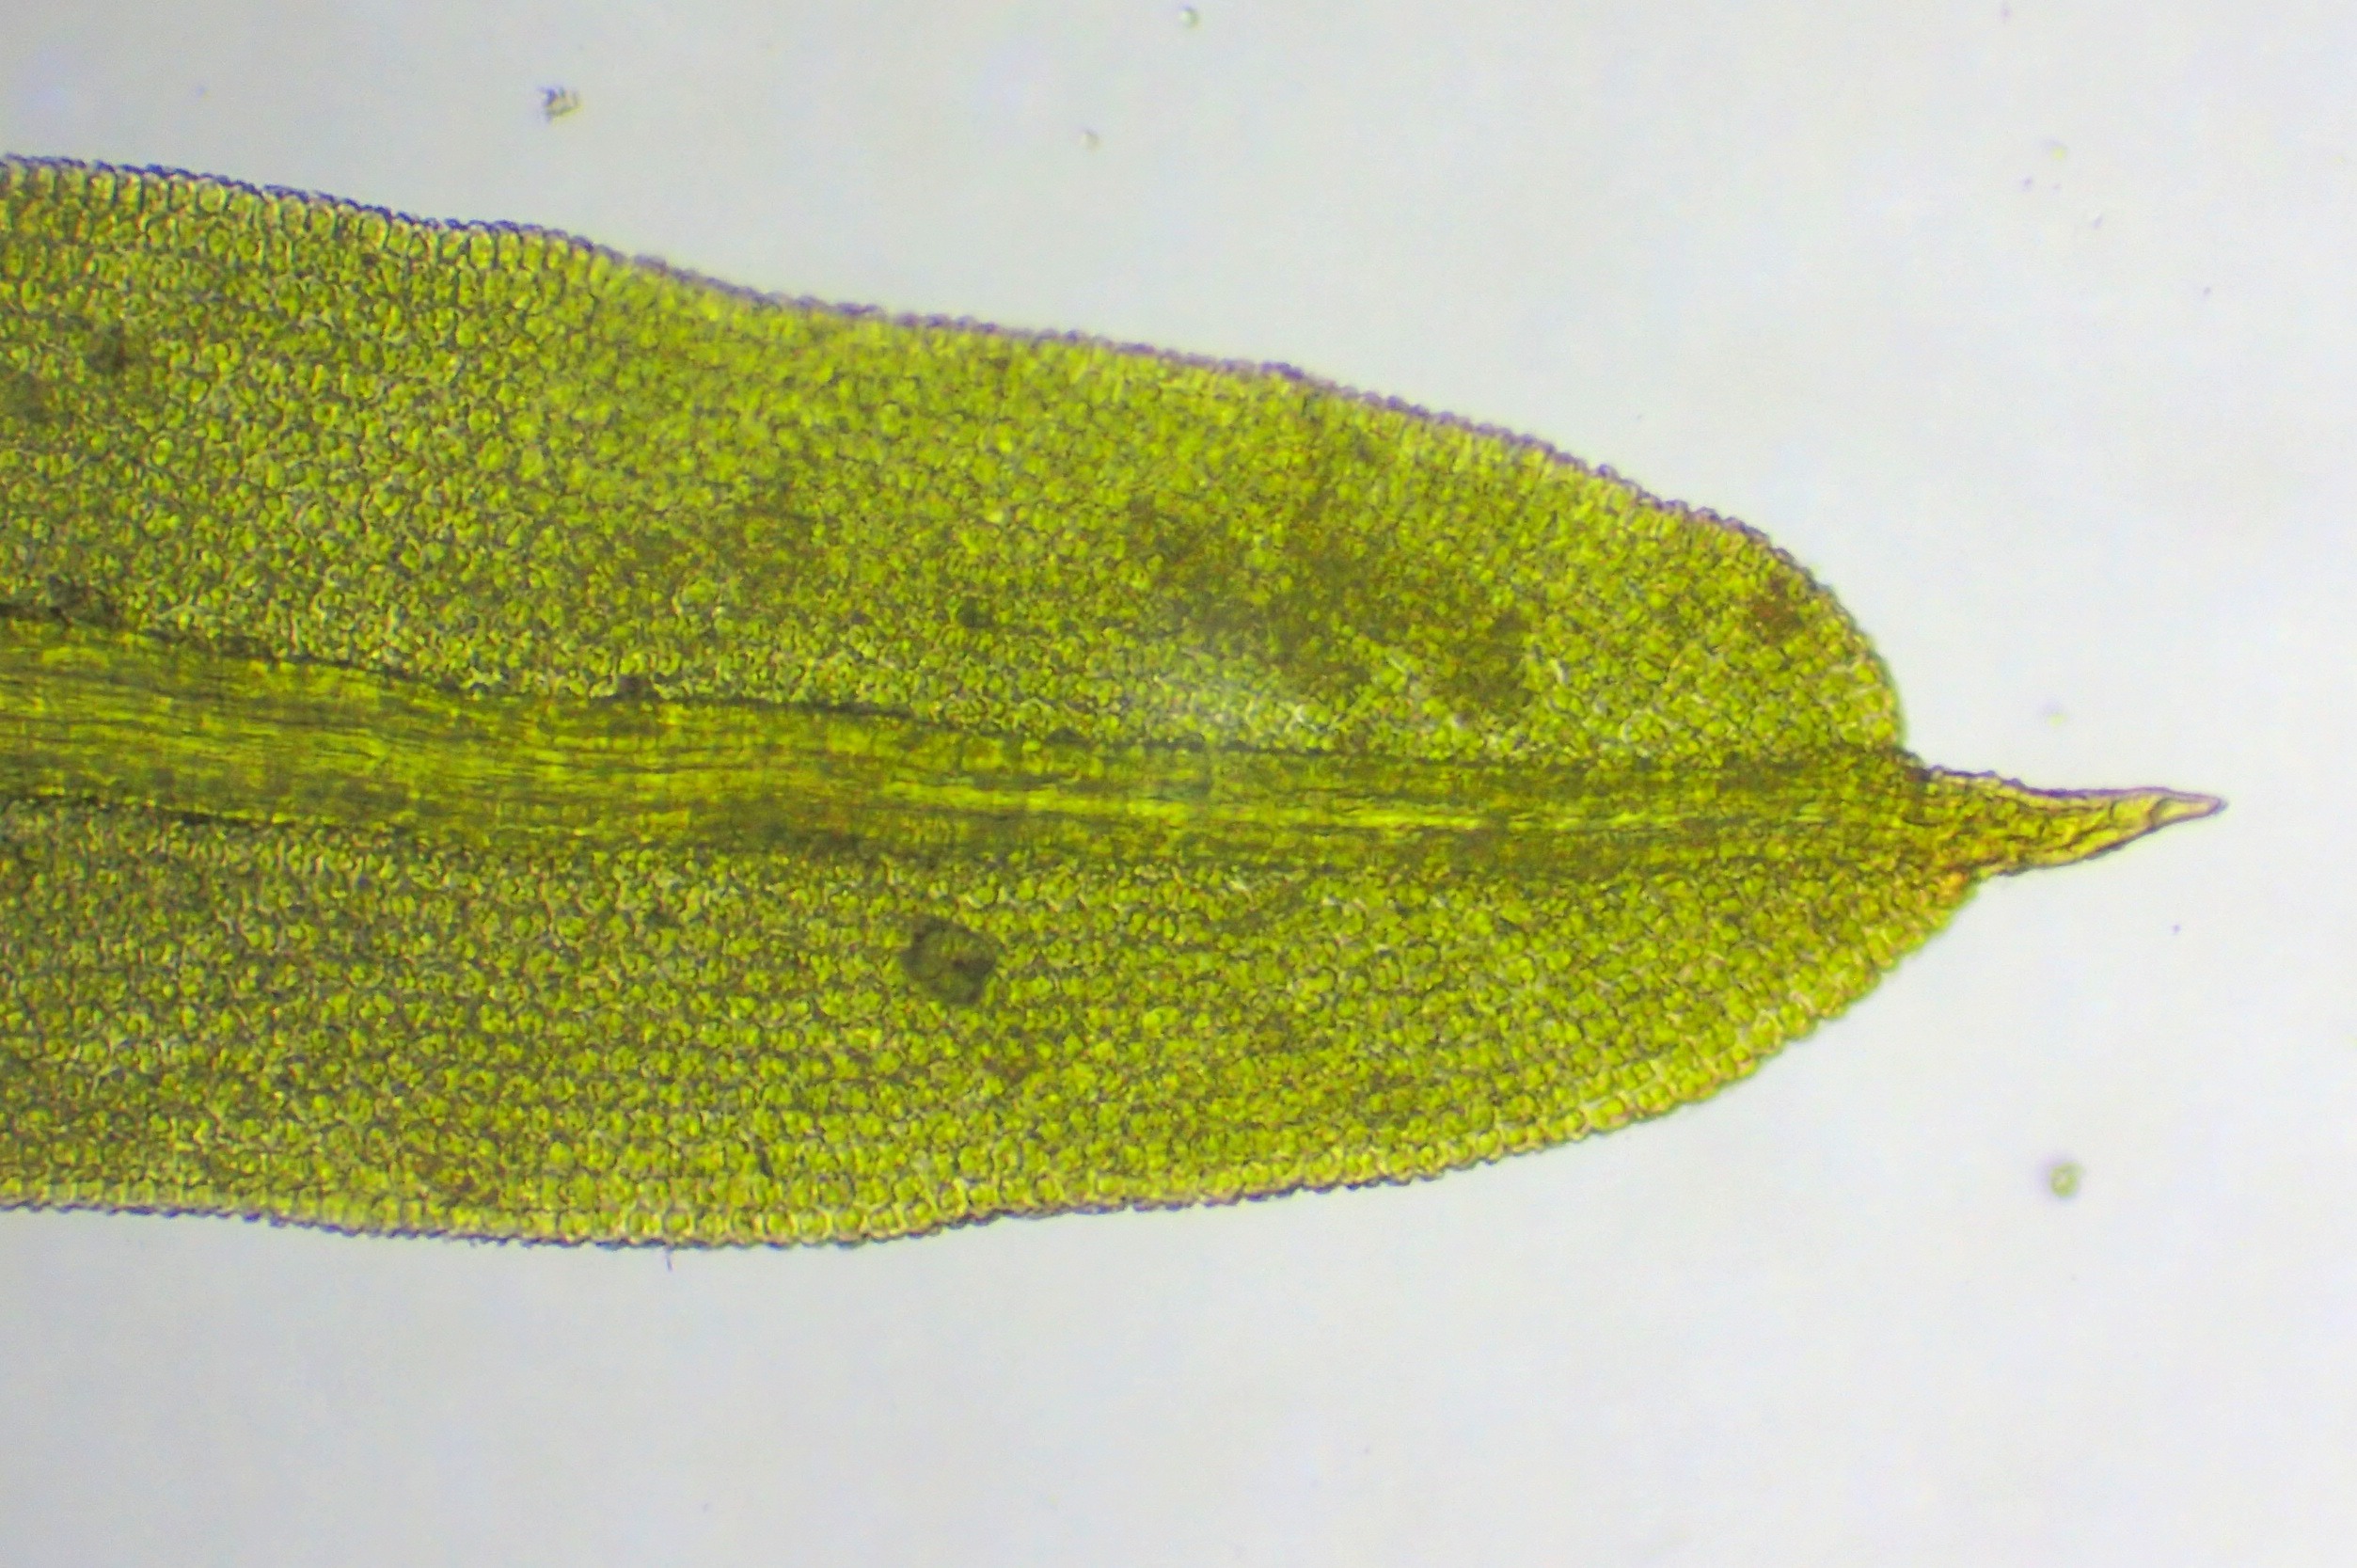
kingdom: Plantae
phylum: Bryophyta
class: Bryopsida
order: Pottiales
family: Pottiaceae
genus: Barbula
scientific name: Barbula unguiculata
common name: Almindelig skægtand
